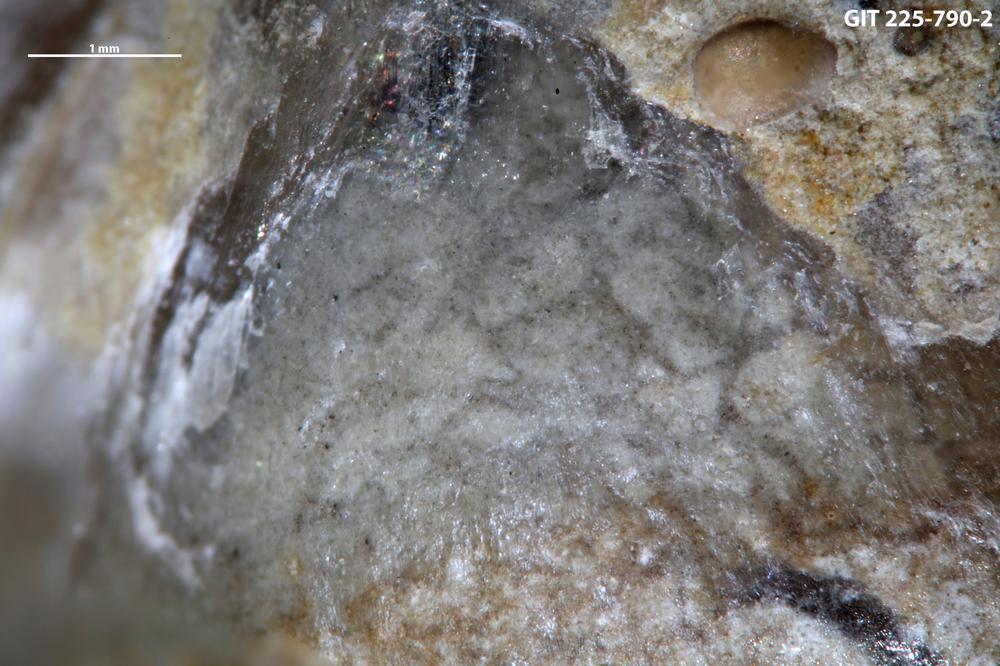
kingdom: Animalia
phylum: Annelida
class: Polychaeta
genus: Arachnostega
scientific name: Arachnostega
